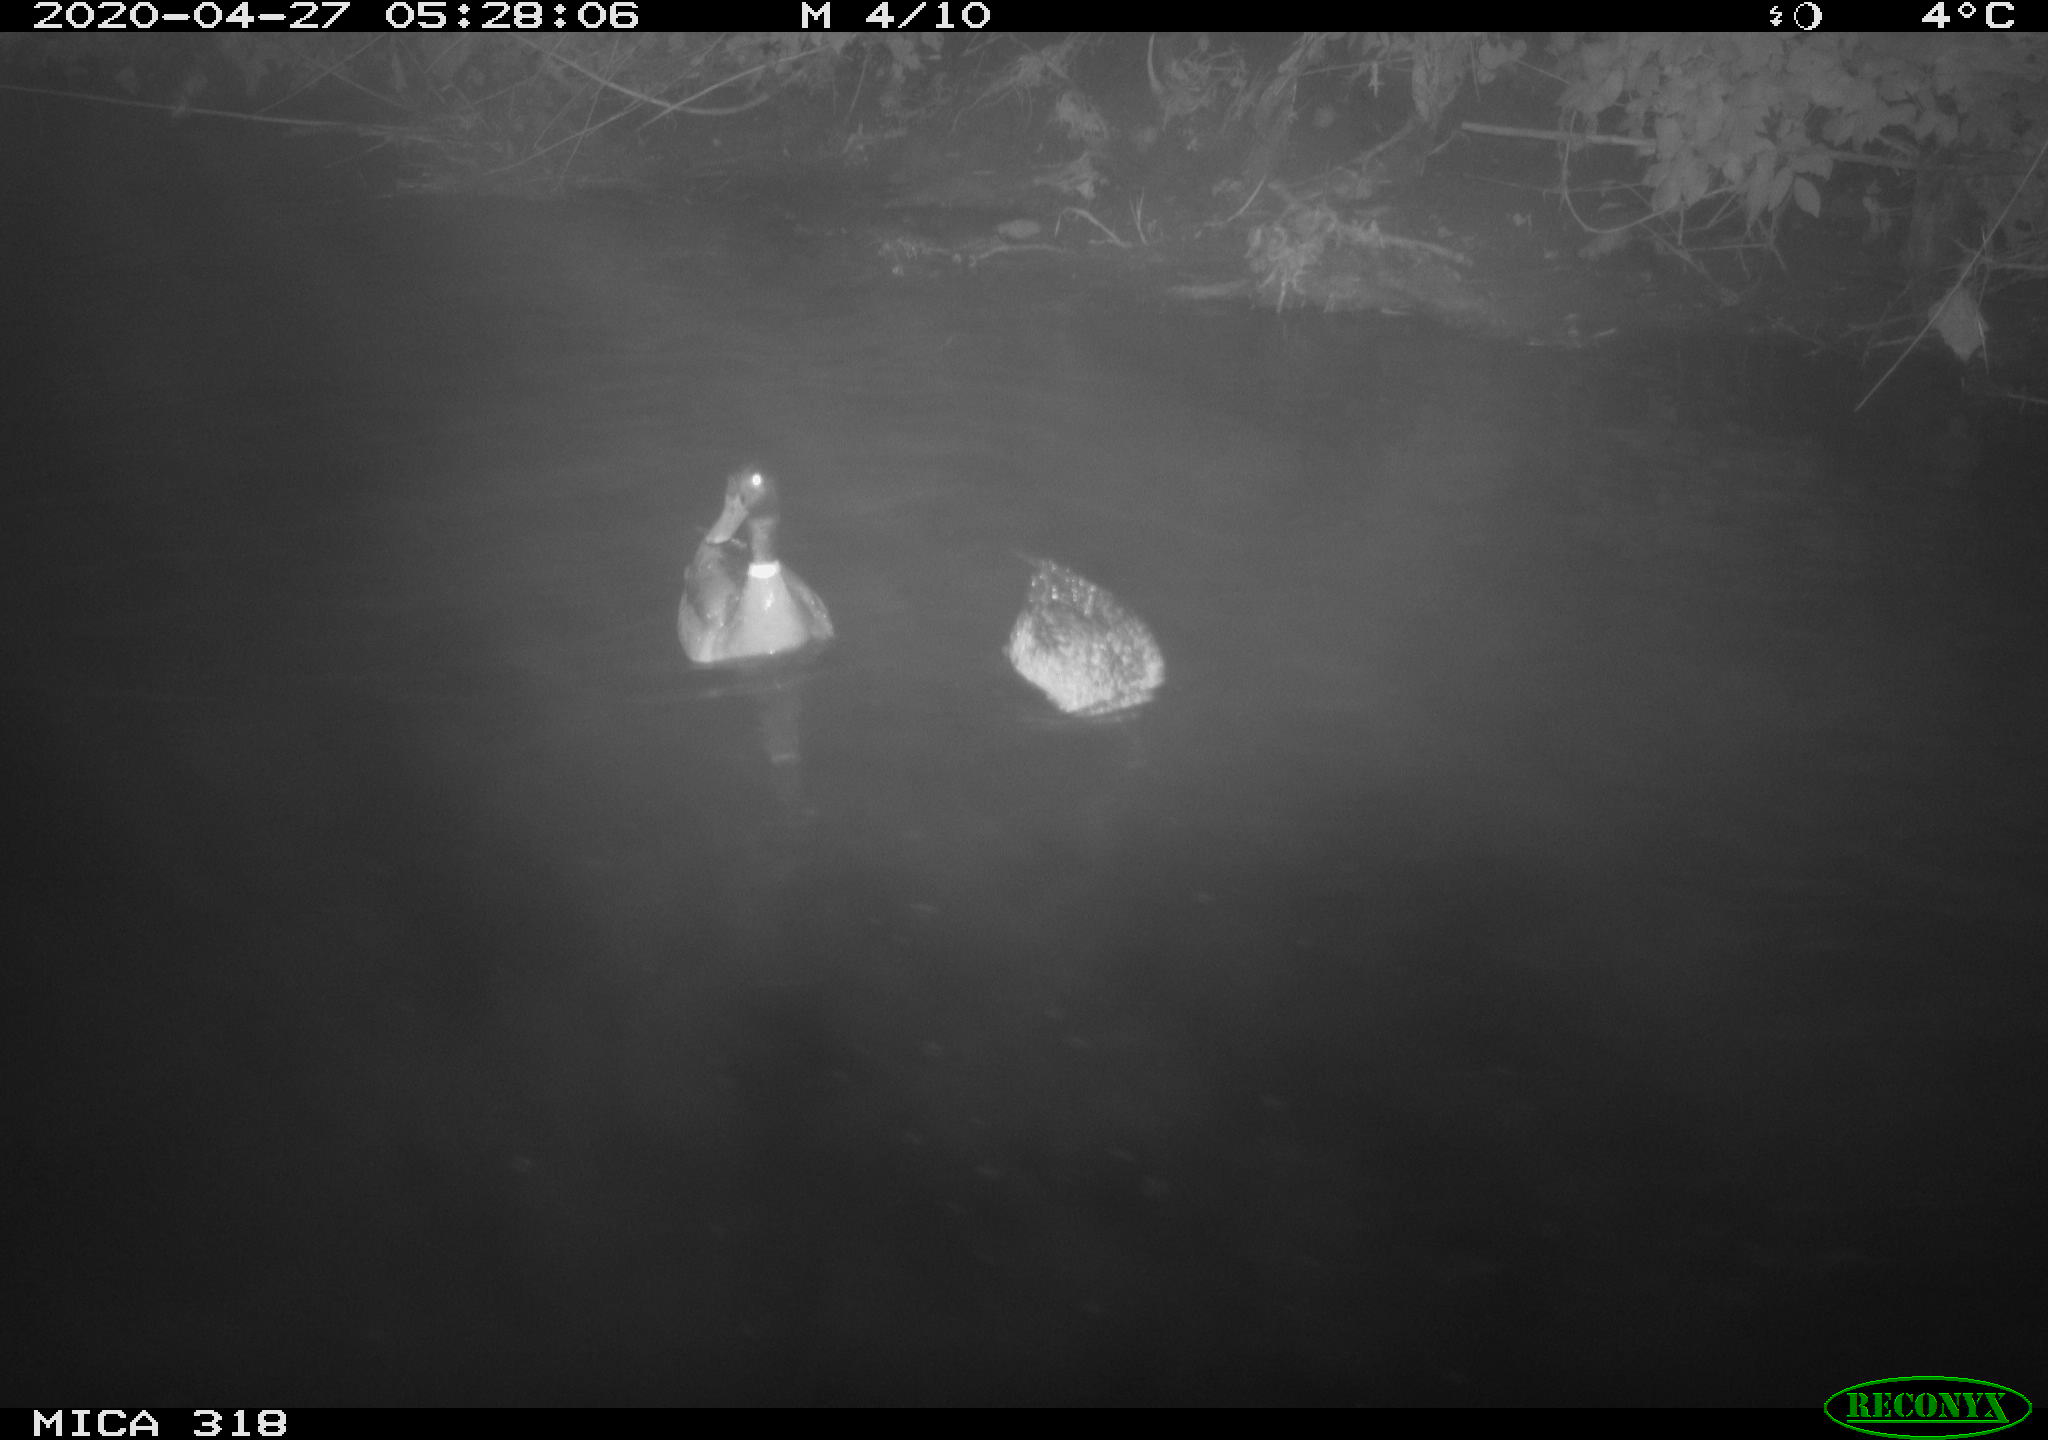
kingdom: Animalia
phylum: Chordata
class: Aves
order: Anseriformes
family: Anatidae
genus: Anas
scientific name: Anas platyrhynchos
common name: Mallard
